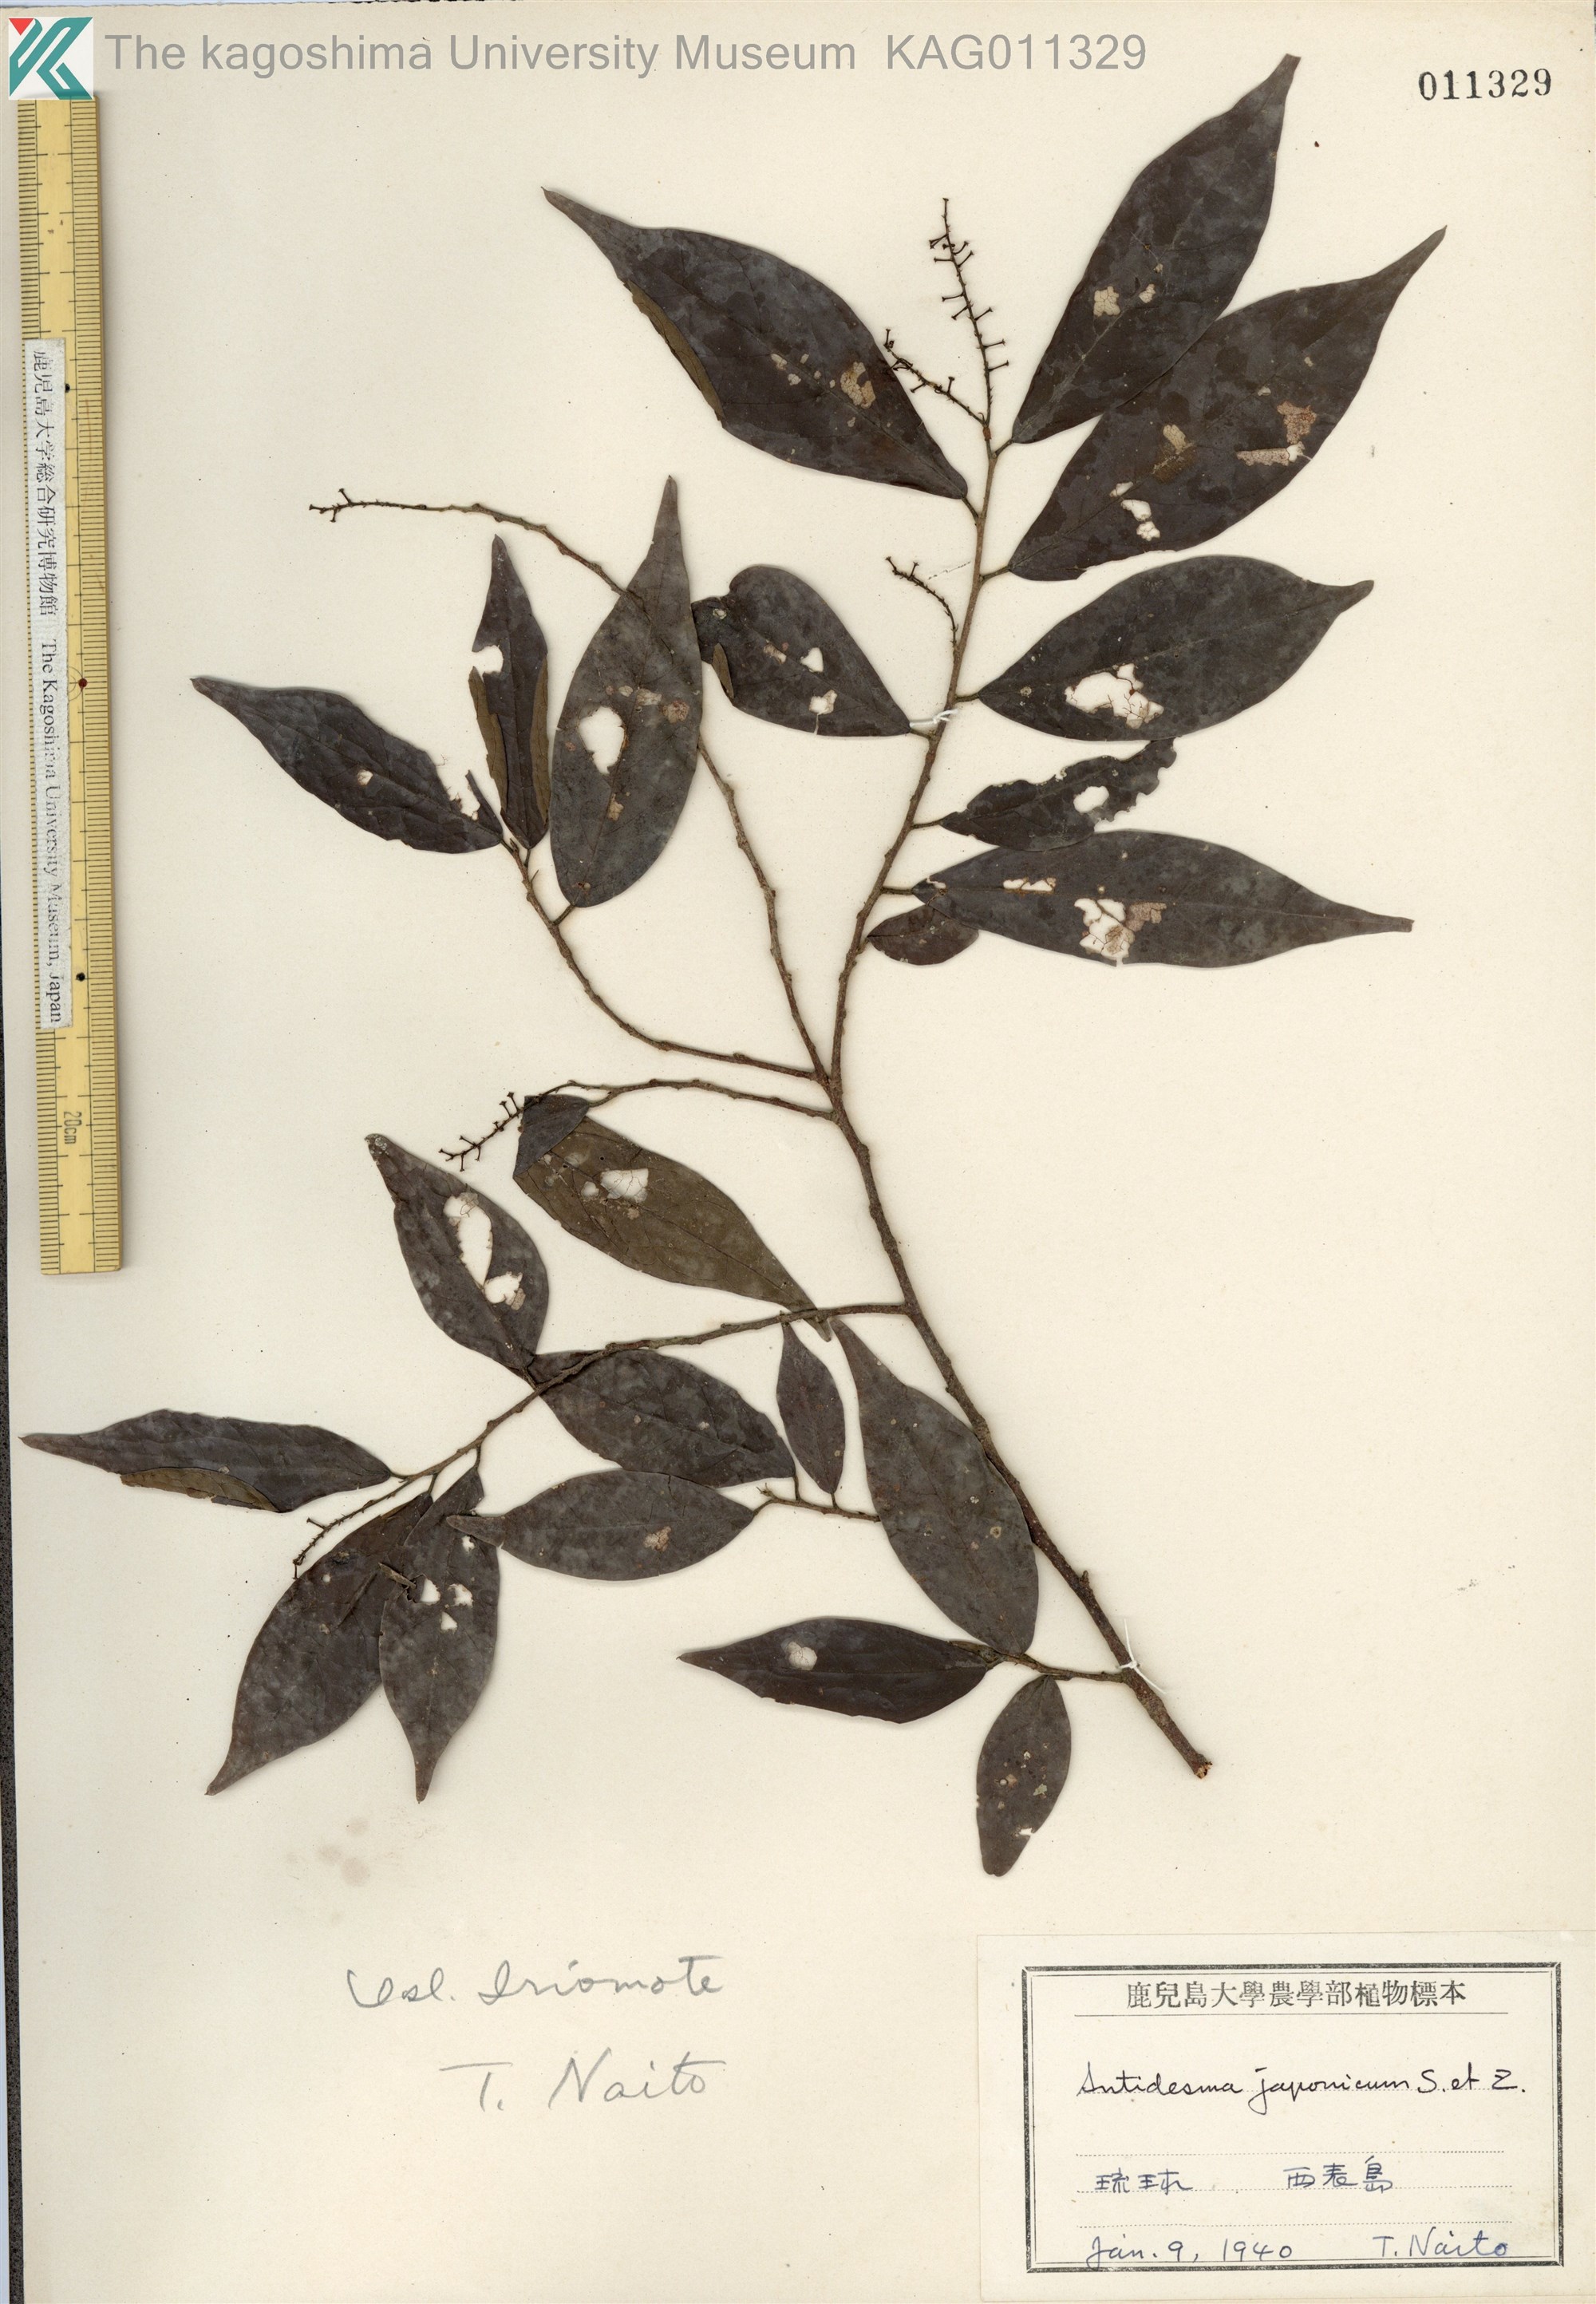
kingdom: Plantae
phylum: Tracheophyta
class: Magnoliopsida
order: Malpighiales
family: Phyllanthaceae
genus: Antidesma
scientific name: Antidesma japonicum
